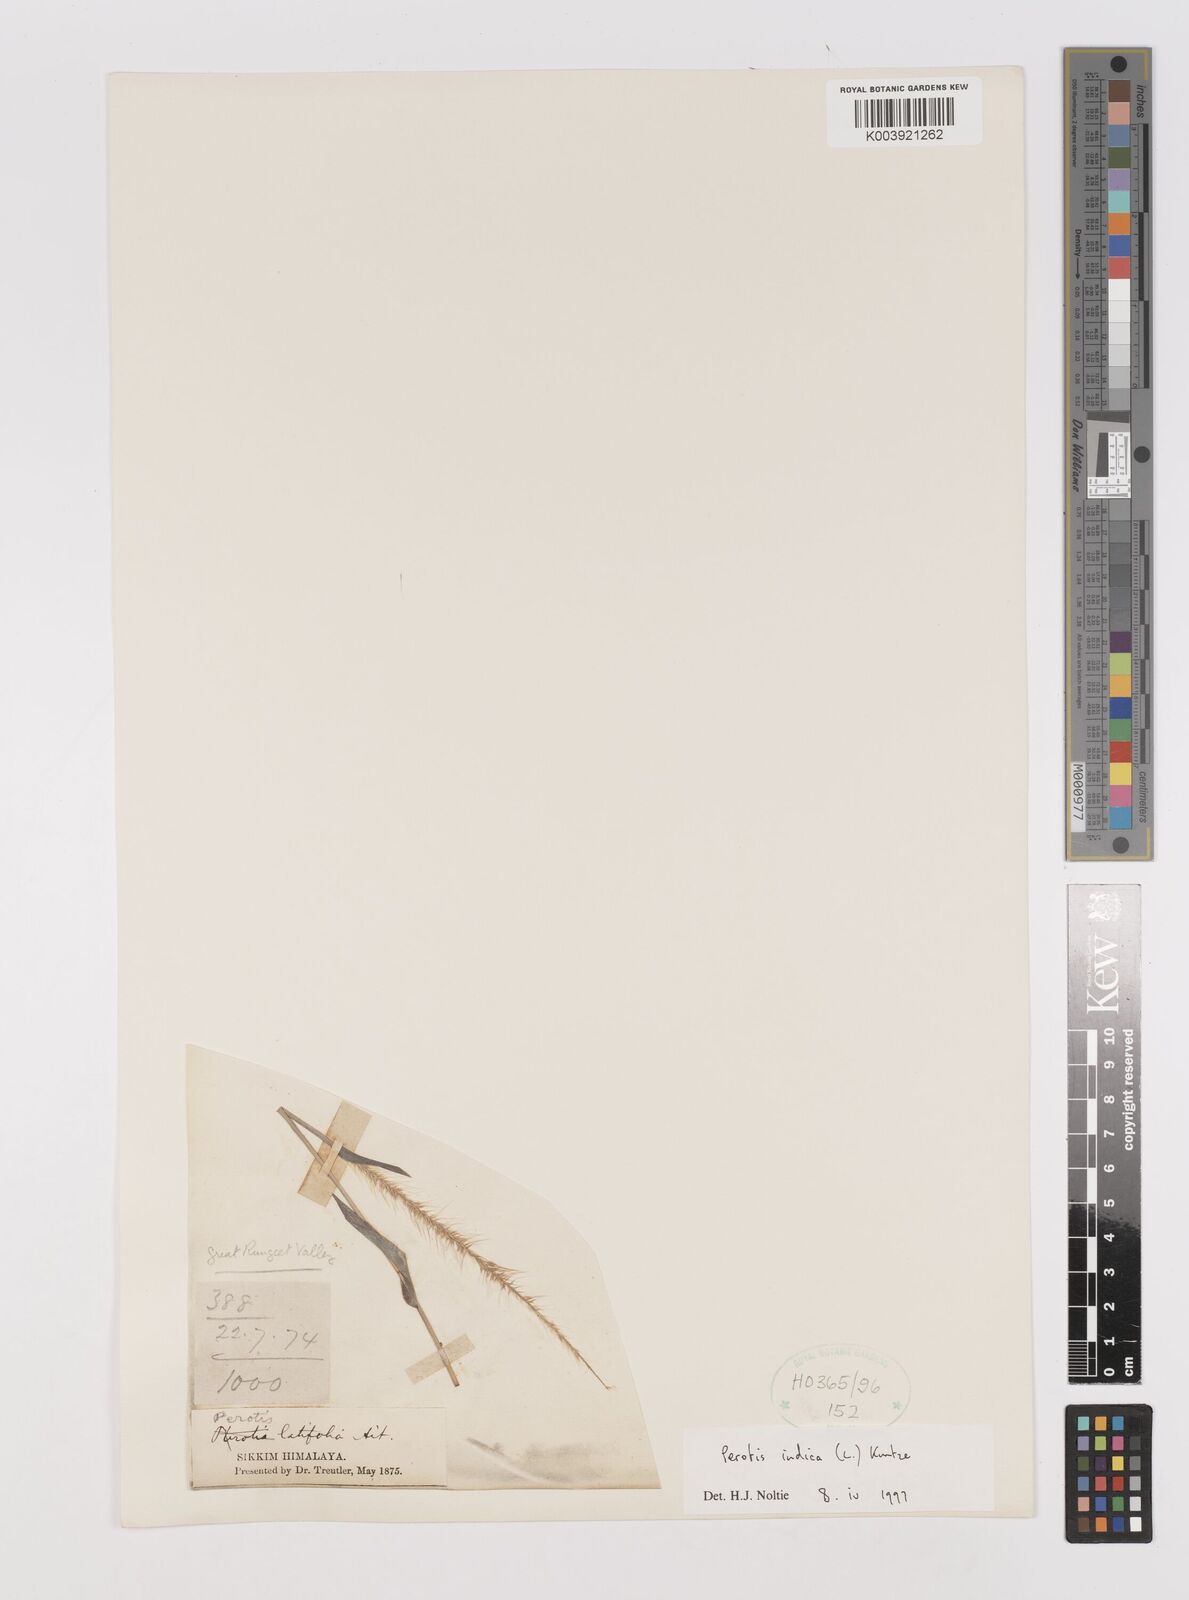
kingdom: Plantae
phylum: Tracheophyta
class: Liliopsida
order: Poales
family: Poaceae
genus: Perotis
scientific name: Perotis hordeiformis
